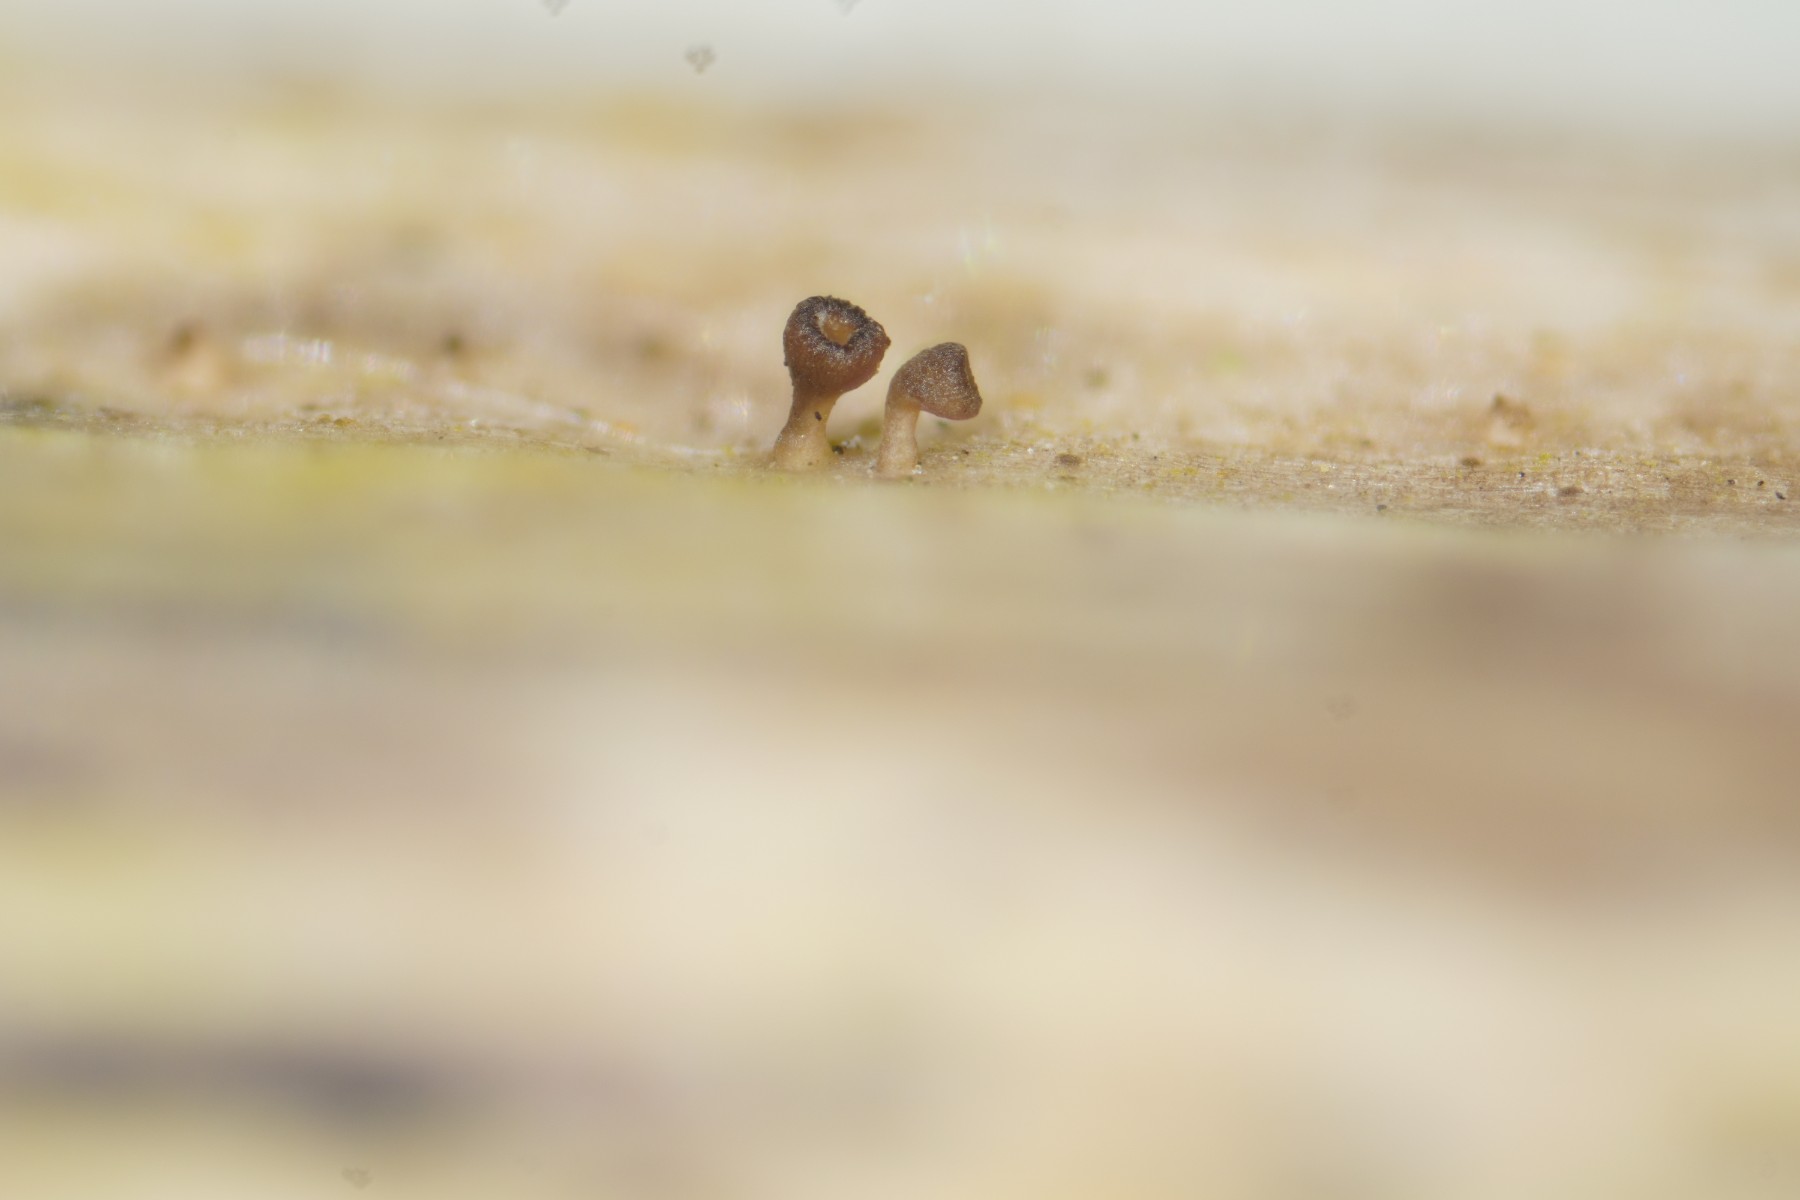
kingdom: Fungi
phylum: Ascomycota
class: Leotiomycetes
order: Helotiales
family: Helotiaceae
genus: Cyathicula
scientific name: Cyathicula cyathoidea
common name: pokal-stilkskive
